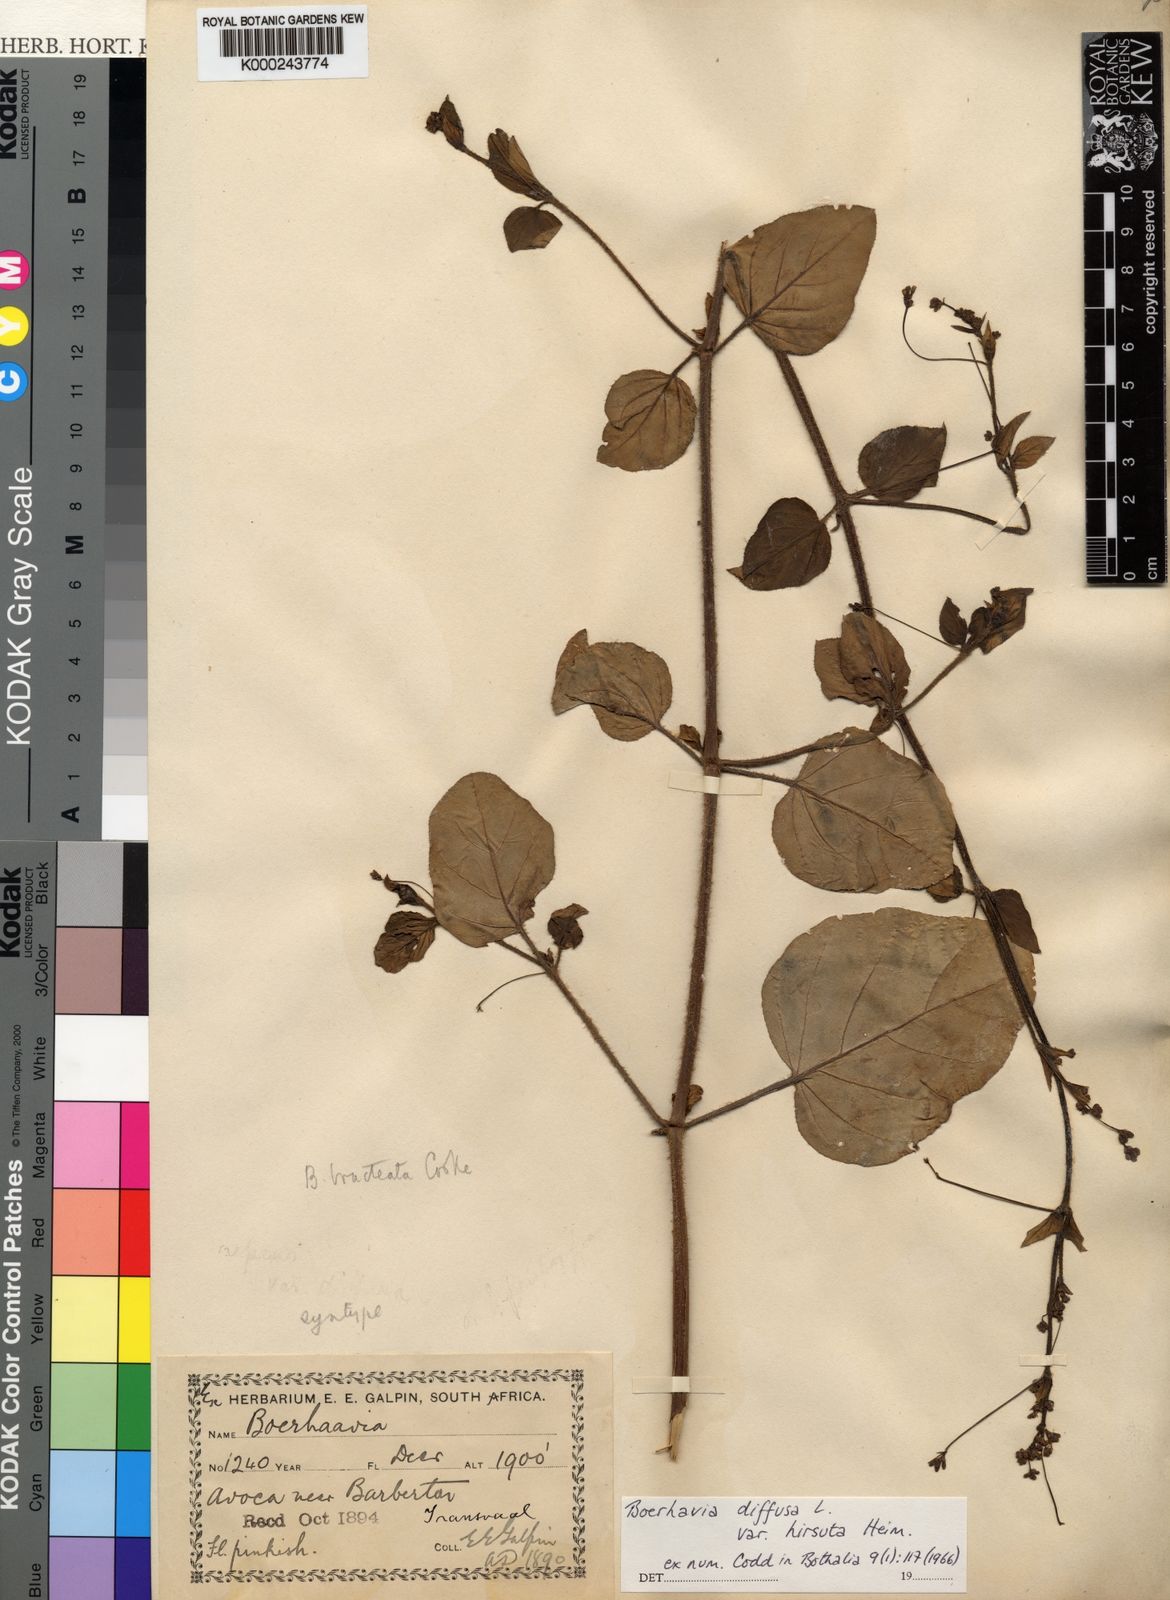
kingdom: Plantae
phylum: Tracheophyta
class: Magnoliopsida
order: Caryophyllales
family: Nyctaginaceae
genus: Boerhavia
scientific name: Boerhavia coccinea
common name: Scarlet spiderling
